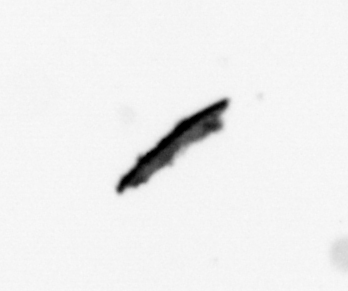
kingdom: Animalia
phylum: Annelida
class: Polychaeta
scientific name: Polychaeta
